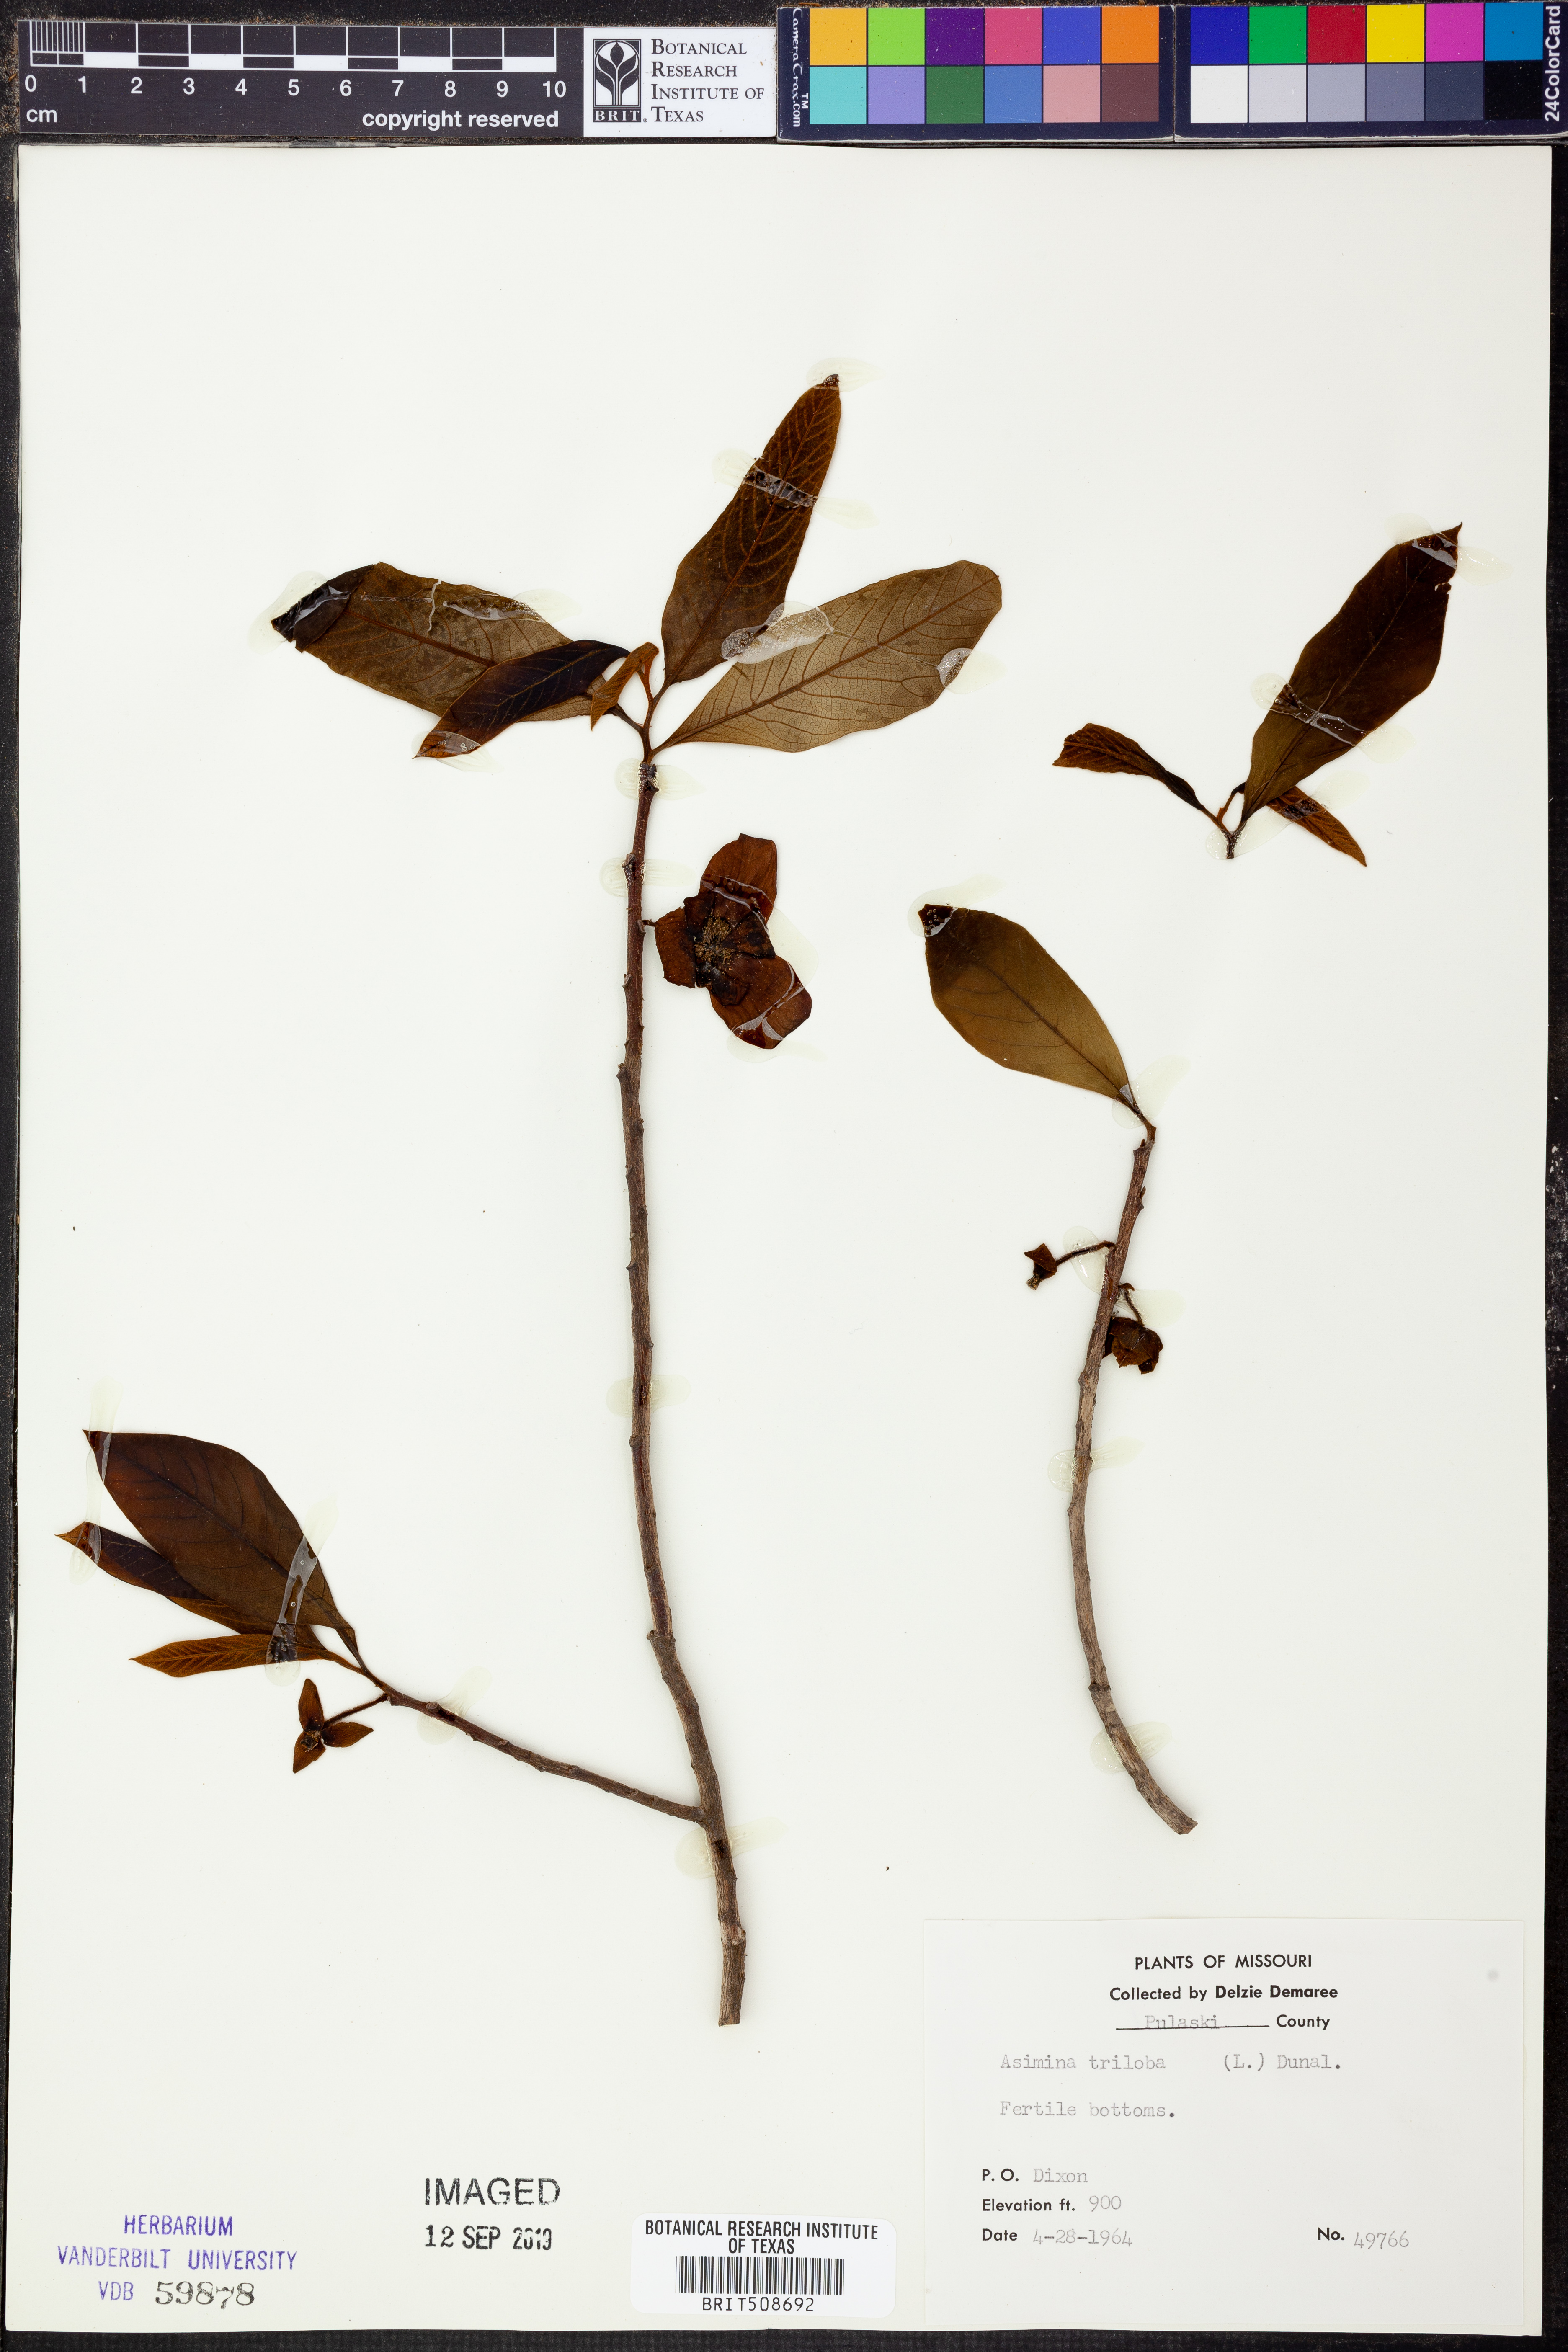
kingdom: Plantae
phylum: Tracheophyta
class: Magnoliopsida
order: Magnoliales
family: Annonaceae
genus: Asimina
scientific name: Asimina triloba
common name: Dog-banana
